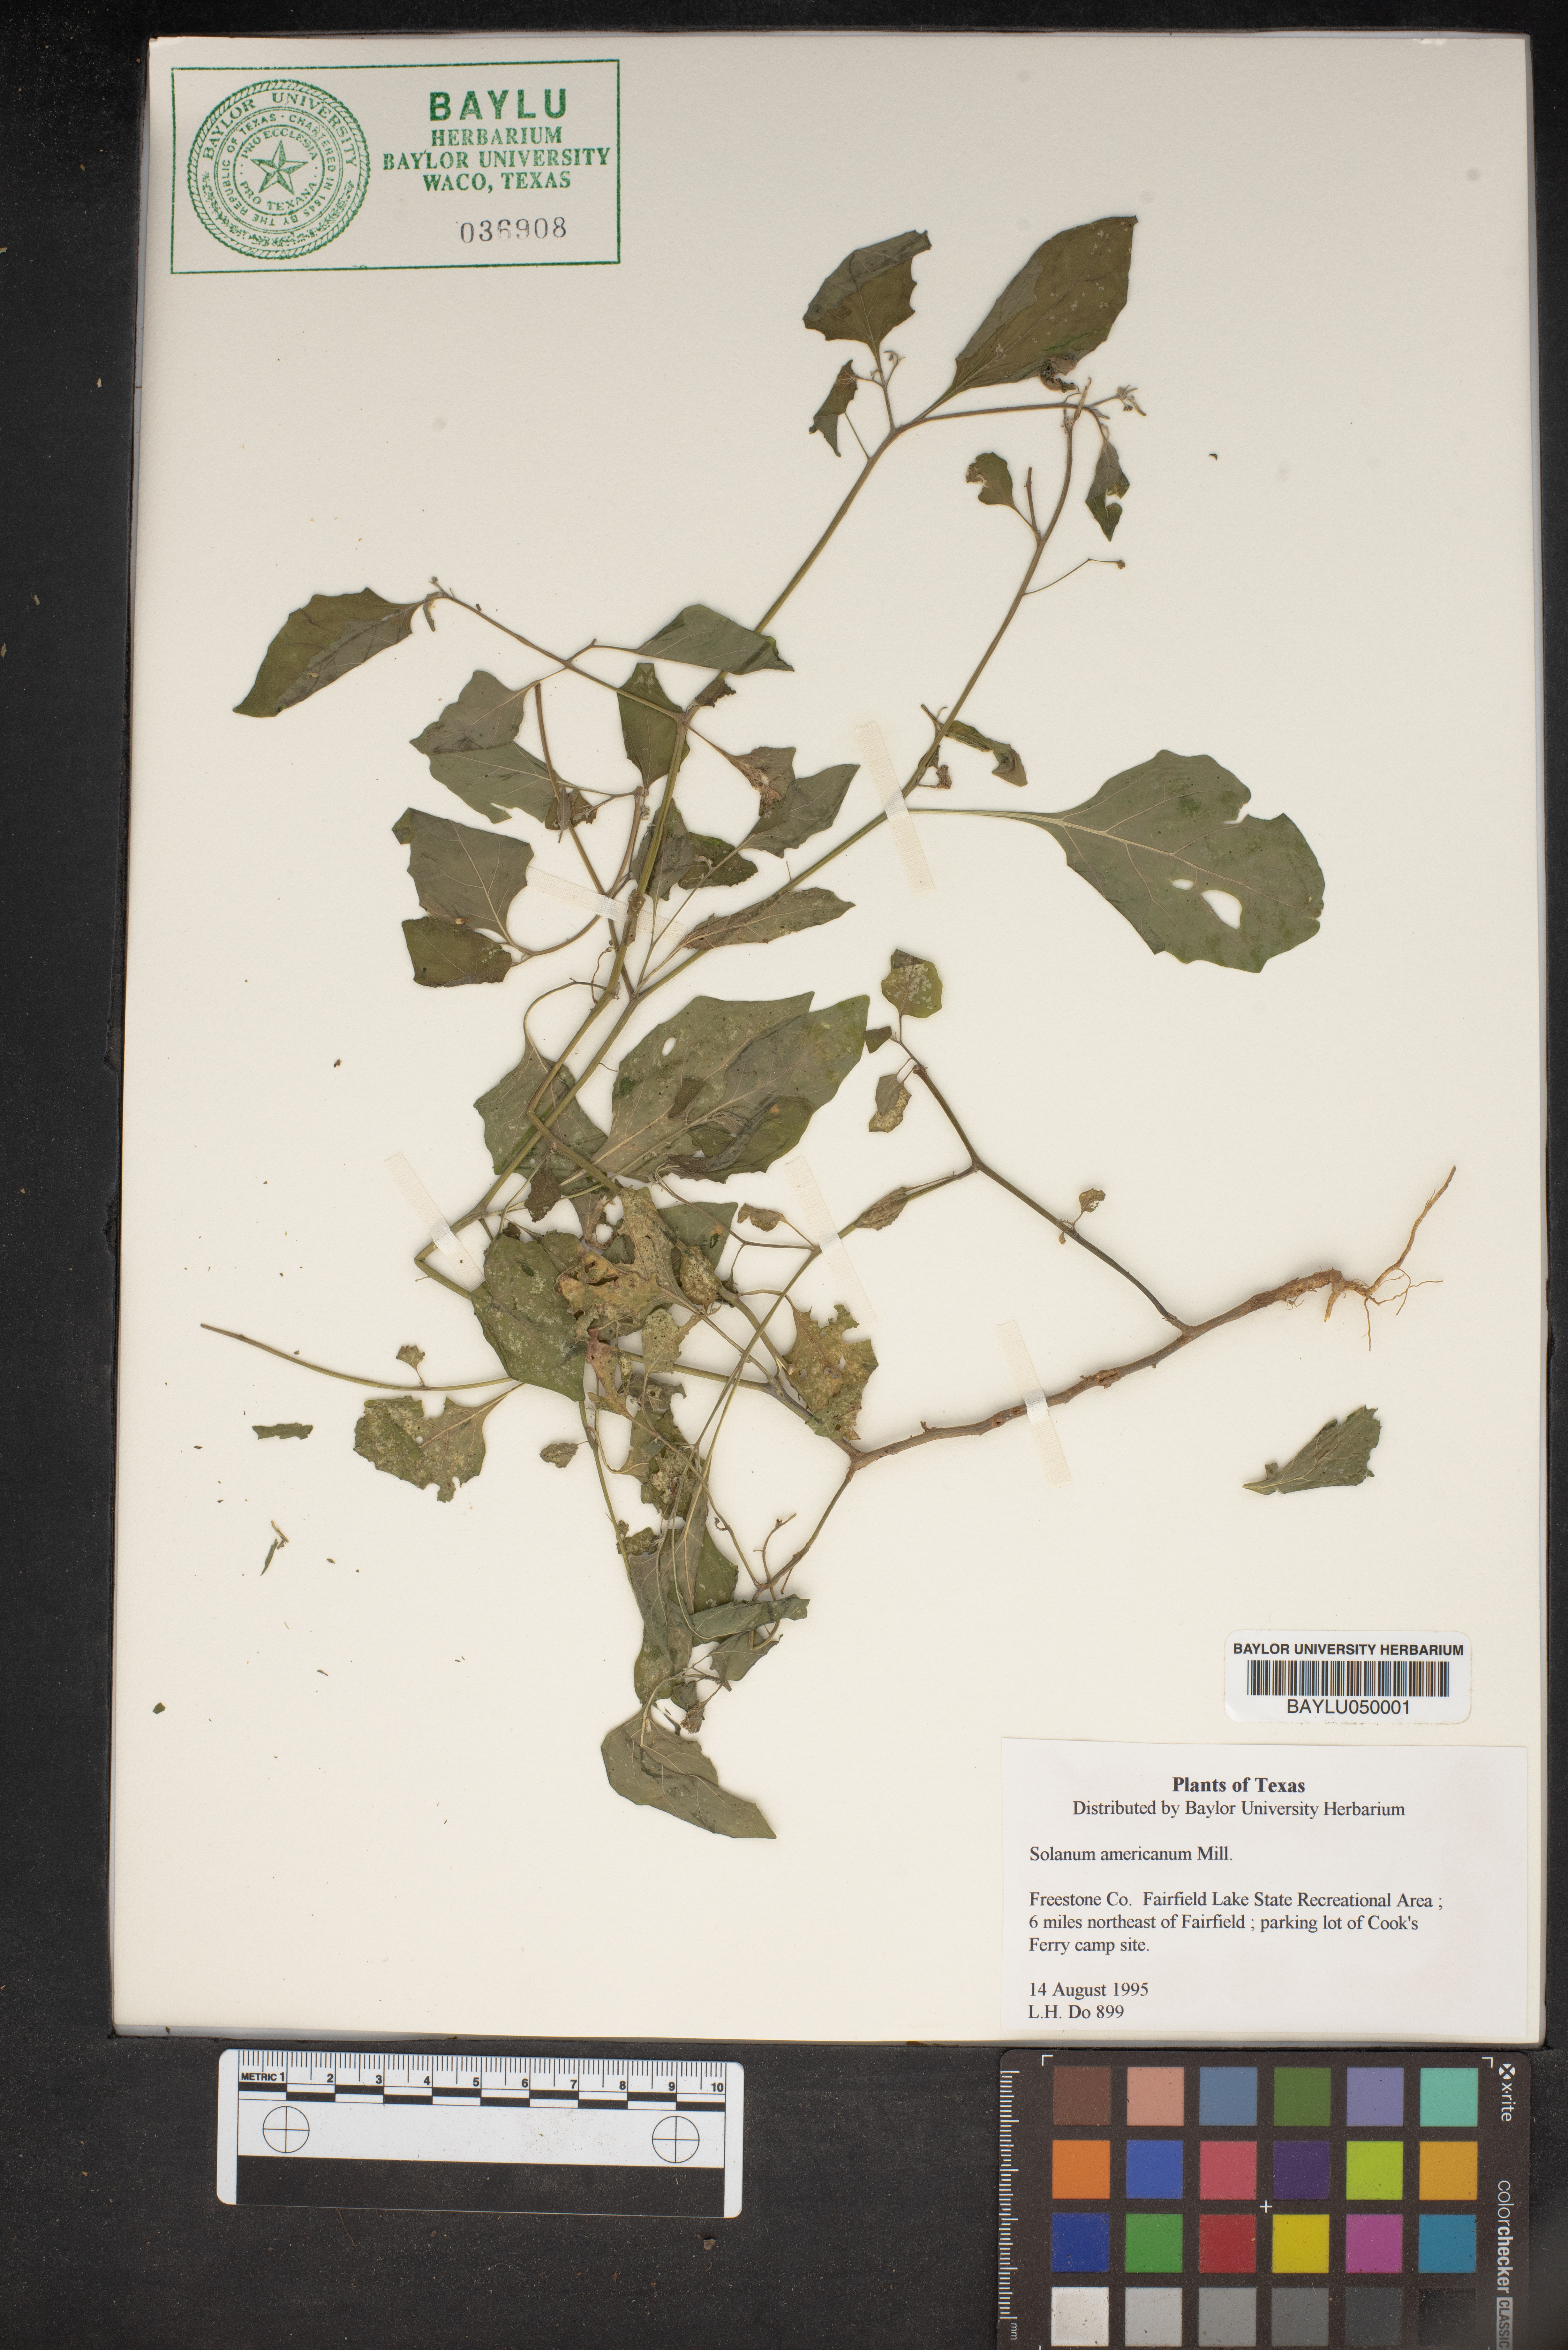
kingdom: Plantae
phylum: Tracheophyta
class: Magnoliopsida
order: Solanales
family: Solanaceae
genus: Solanum
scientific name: Solanum americanum
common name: American black nightshade
